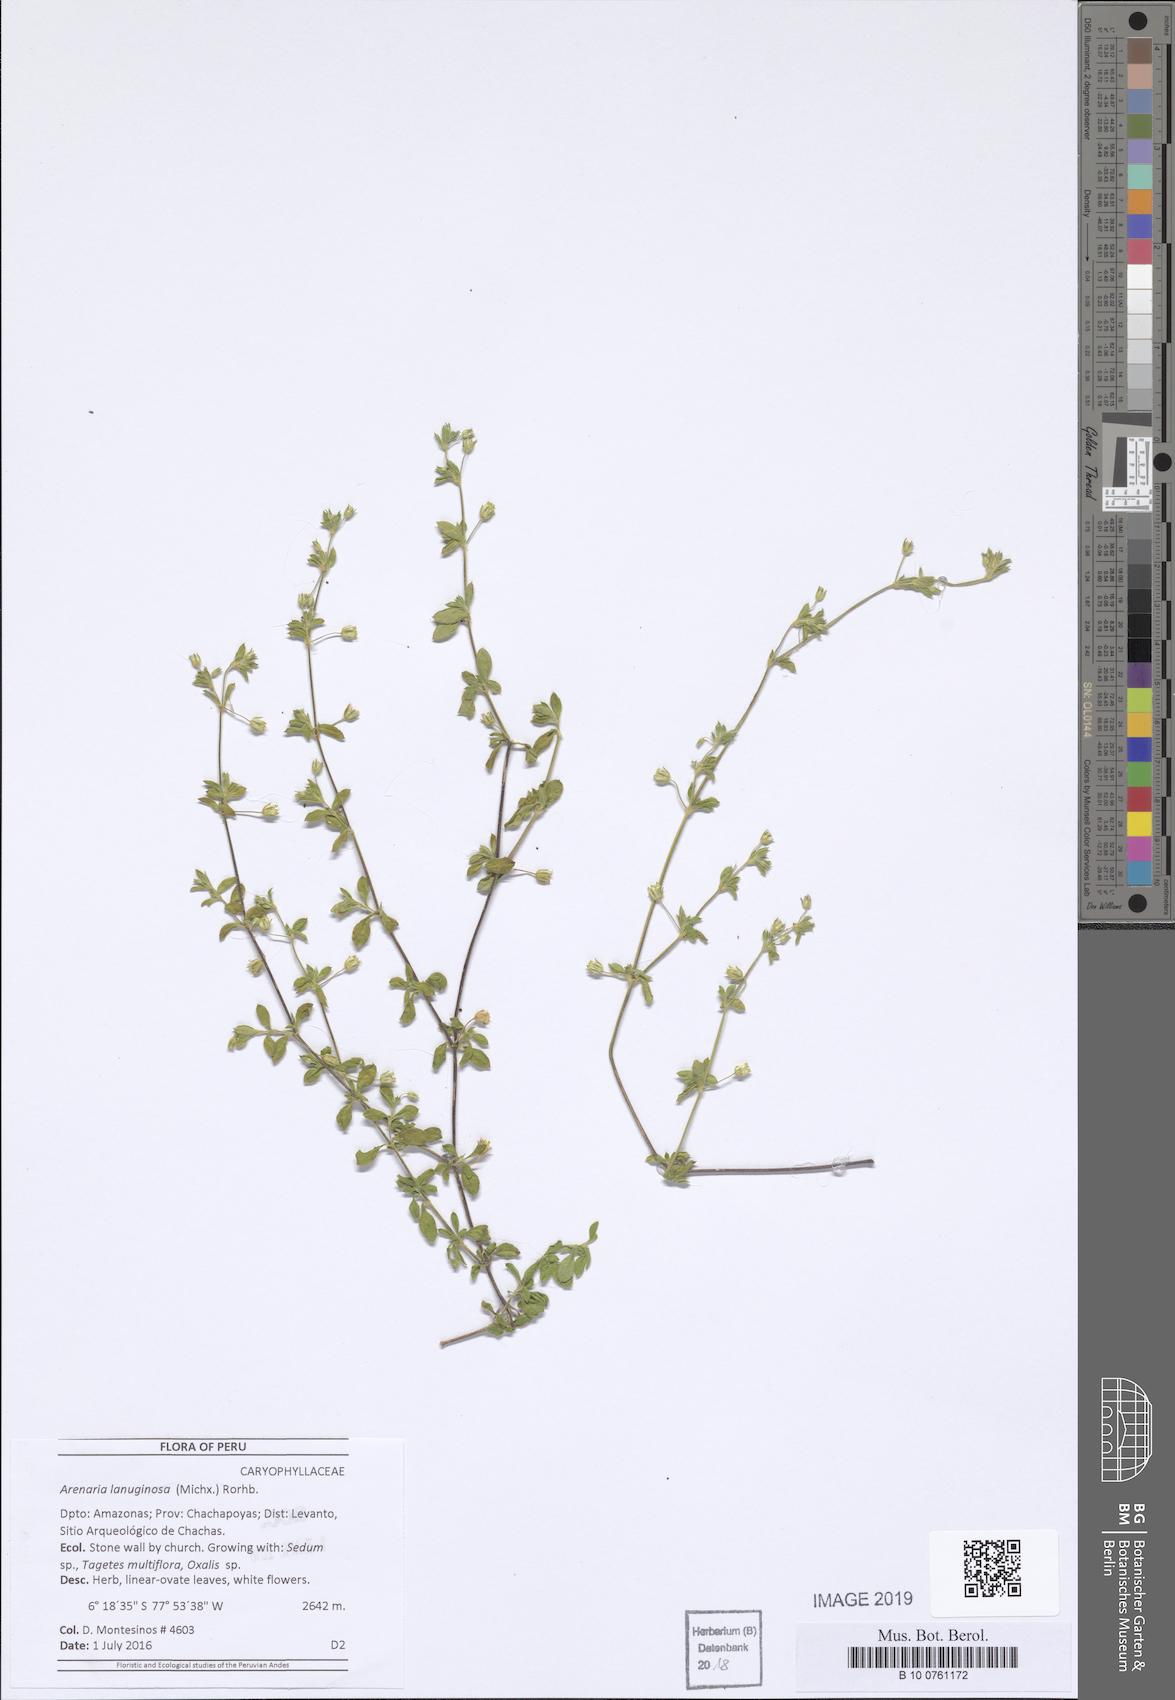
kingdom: Plantae
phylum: Tracheophyta
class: Magnoliopsida
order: Caryophyllales
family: Caryophyllaceae
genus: Arenaria
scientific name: Arenaria lanuginosa
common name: Spread sandwort
